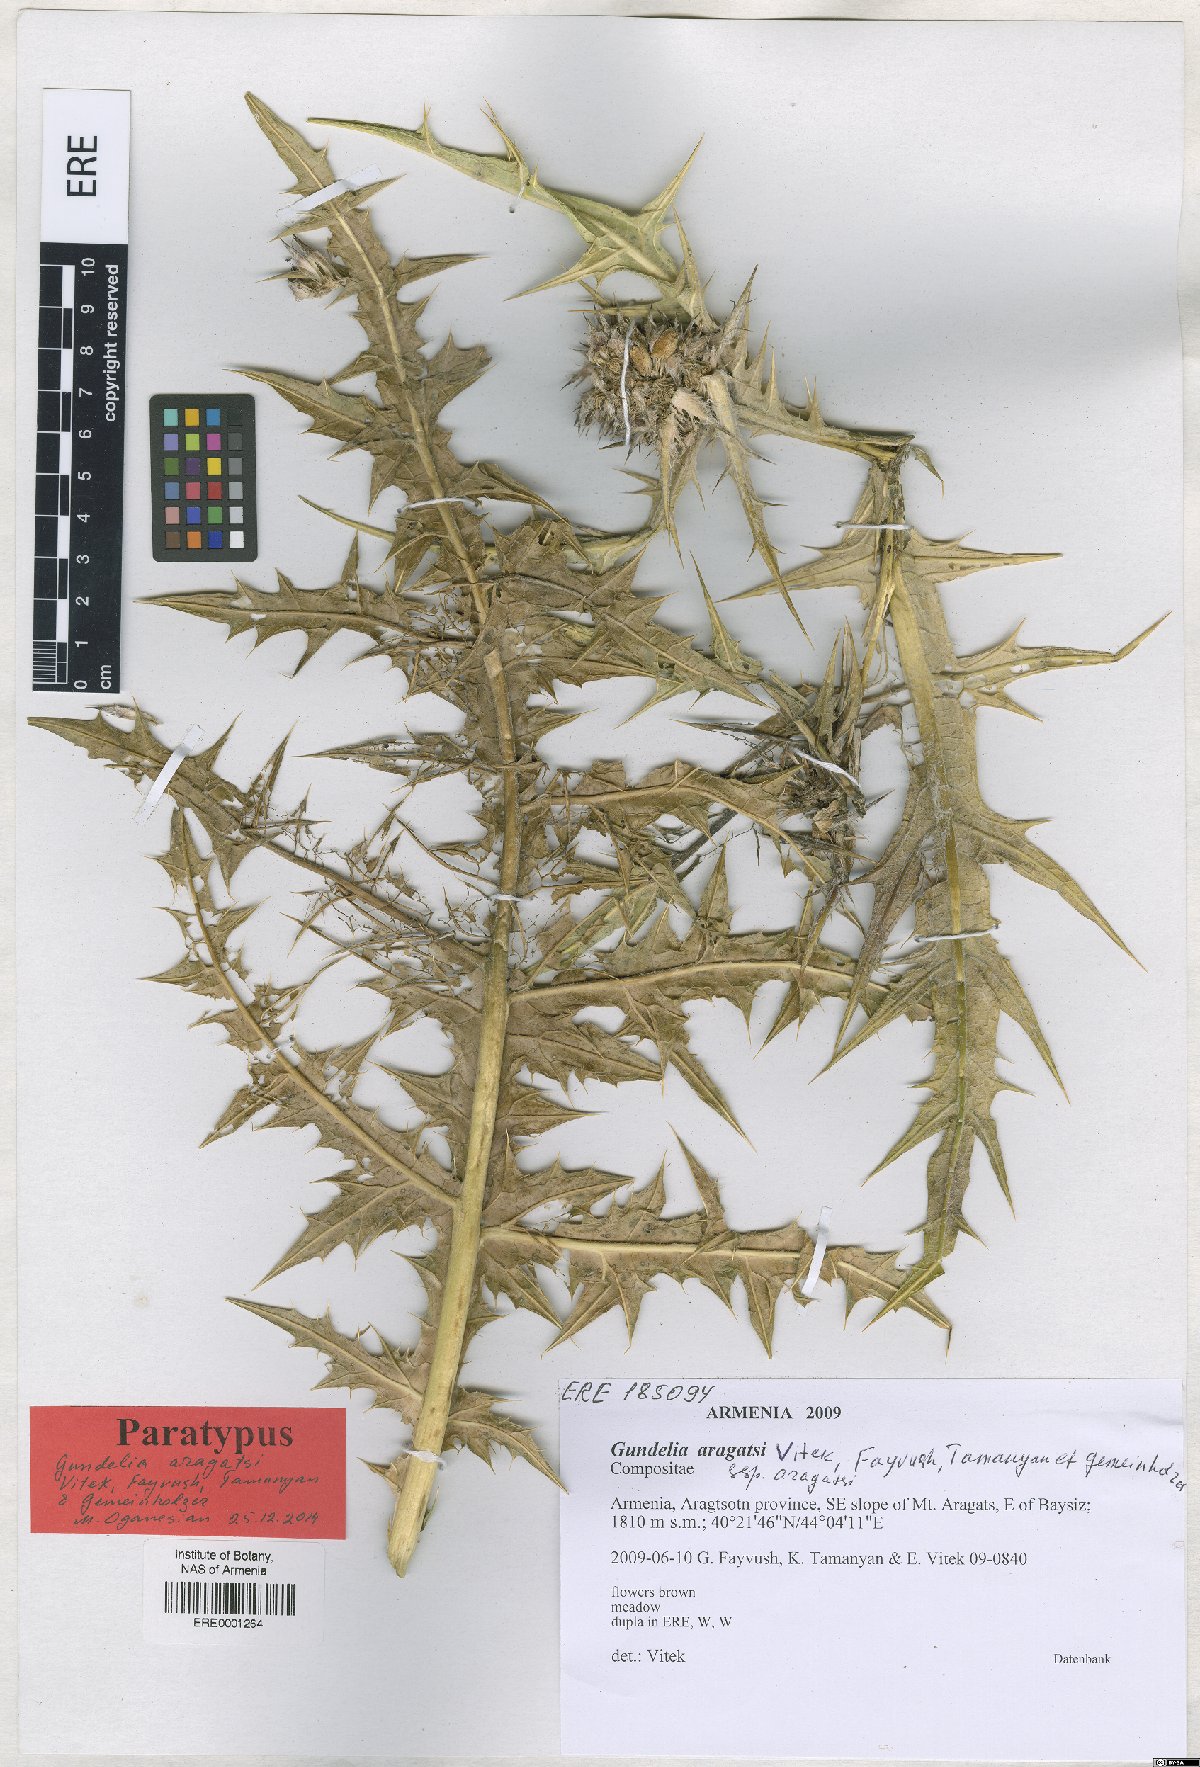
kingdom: Plantae
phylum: Tracheophyta
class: Magnoliopsida
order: Asterales
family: Asteraceae
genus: Gundelia
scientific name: Gundelia aragatsi
